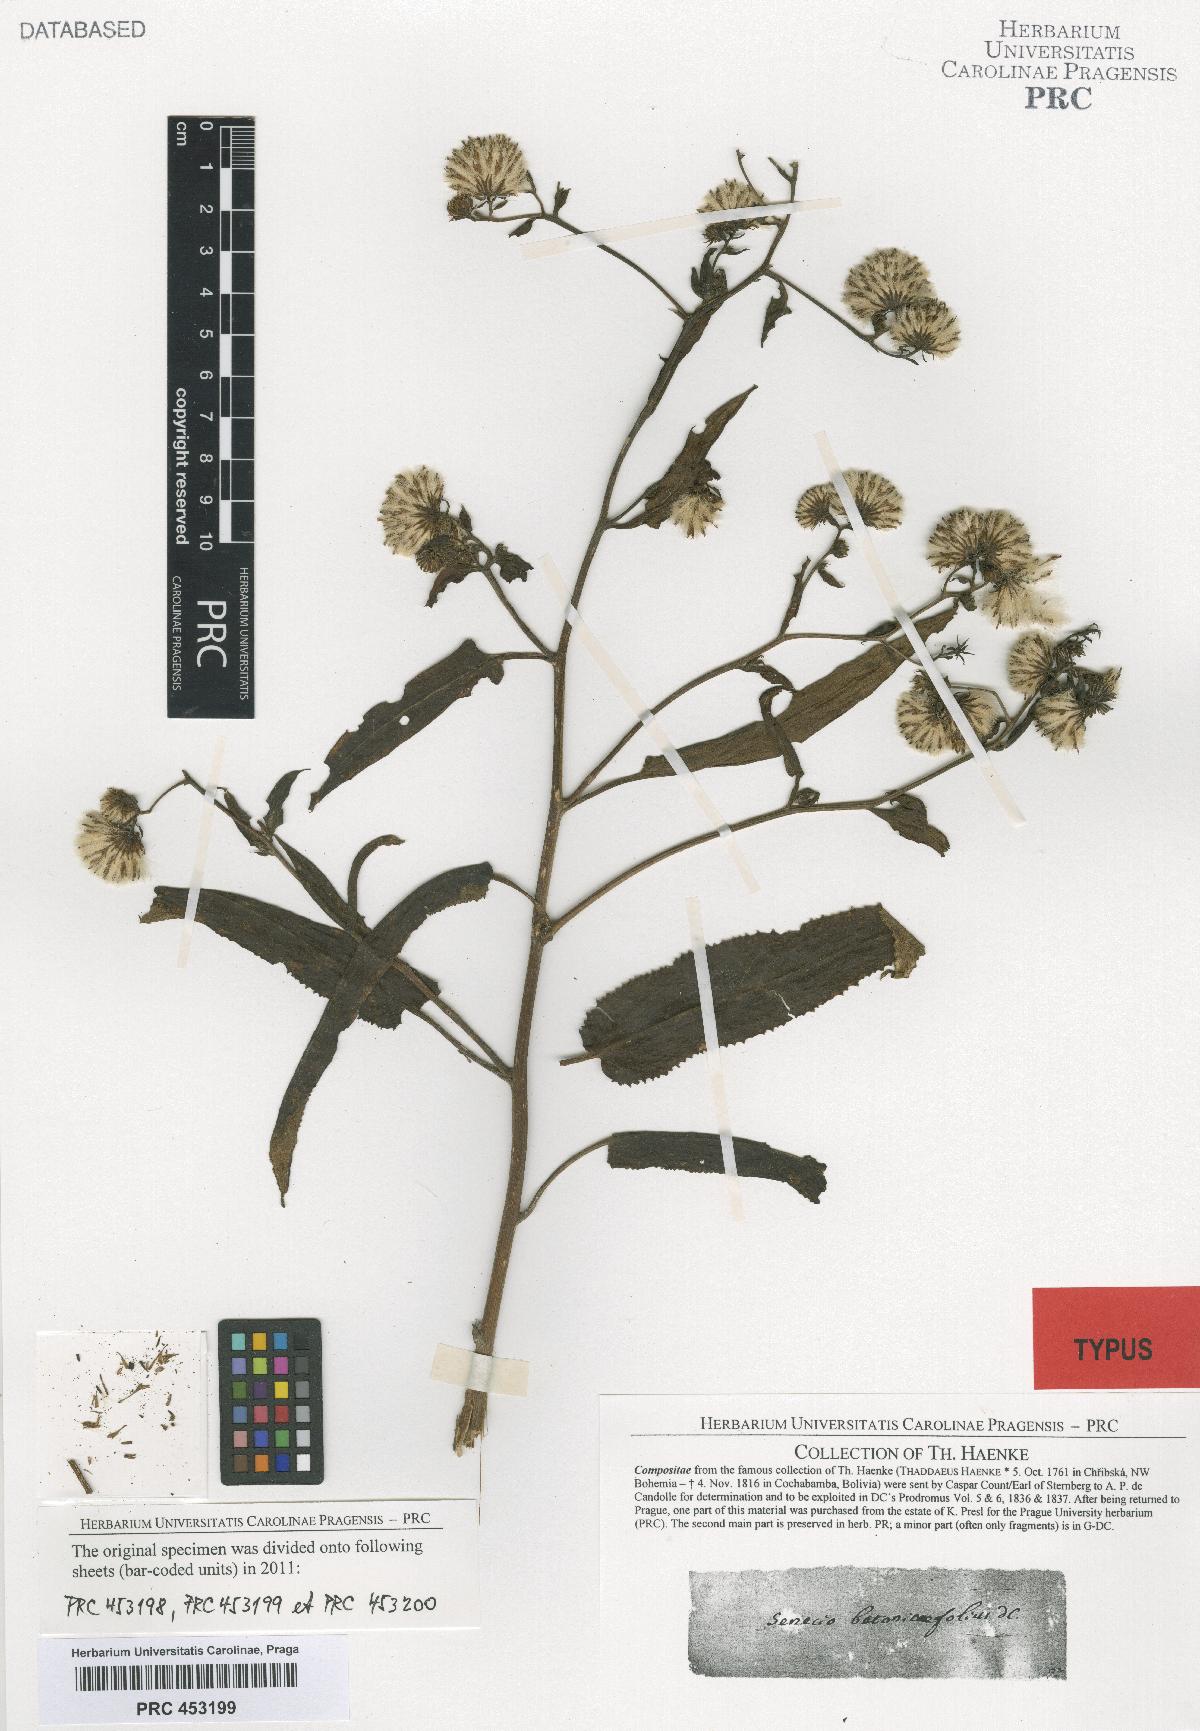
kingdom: Plantae
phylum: Tracheophyta
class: Magnoliopsida
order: Asterales
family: Asteraceae
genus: Aetheolaena
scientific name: Aetheolaena betonicifolia
